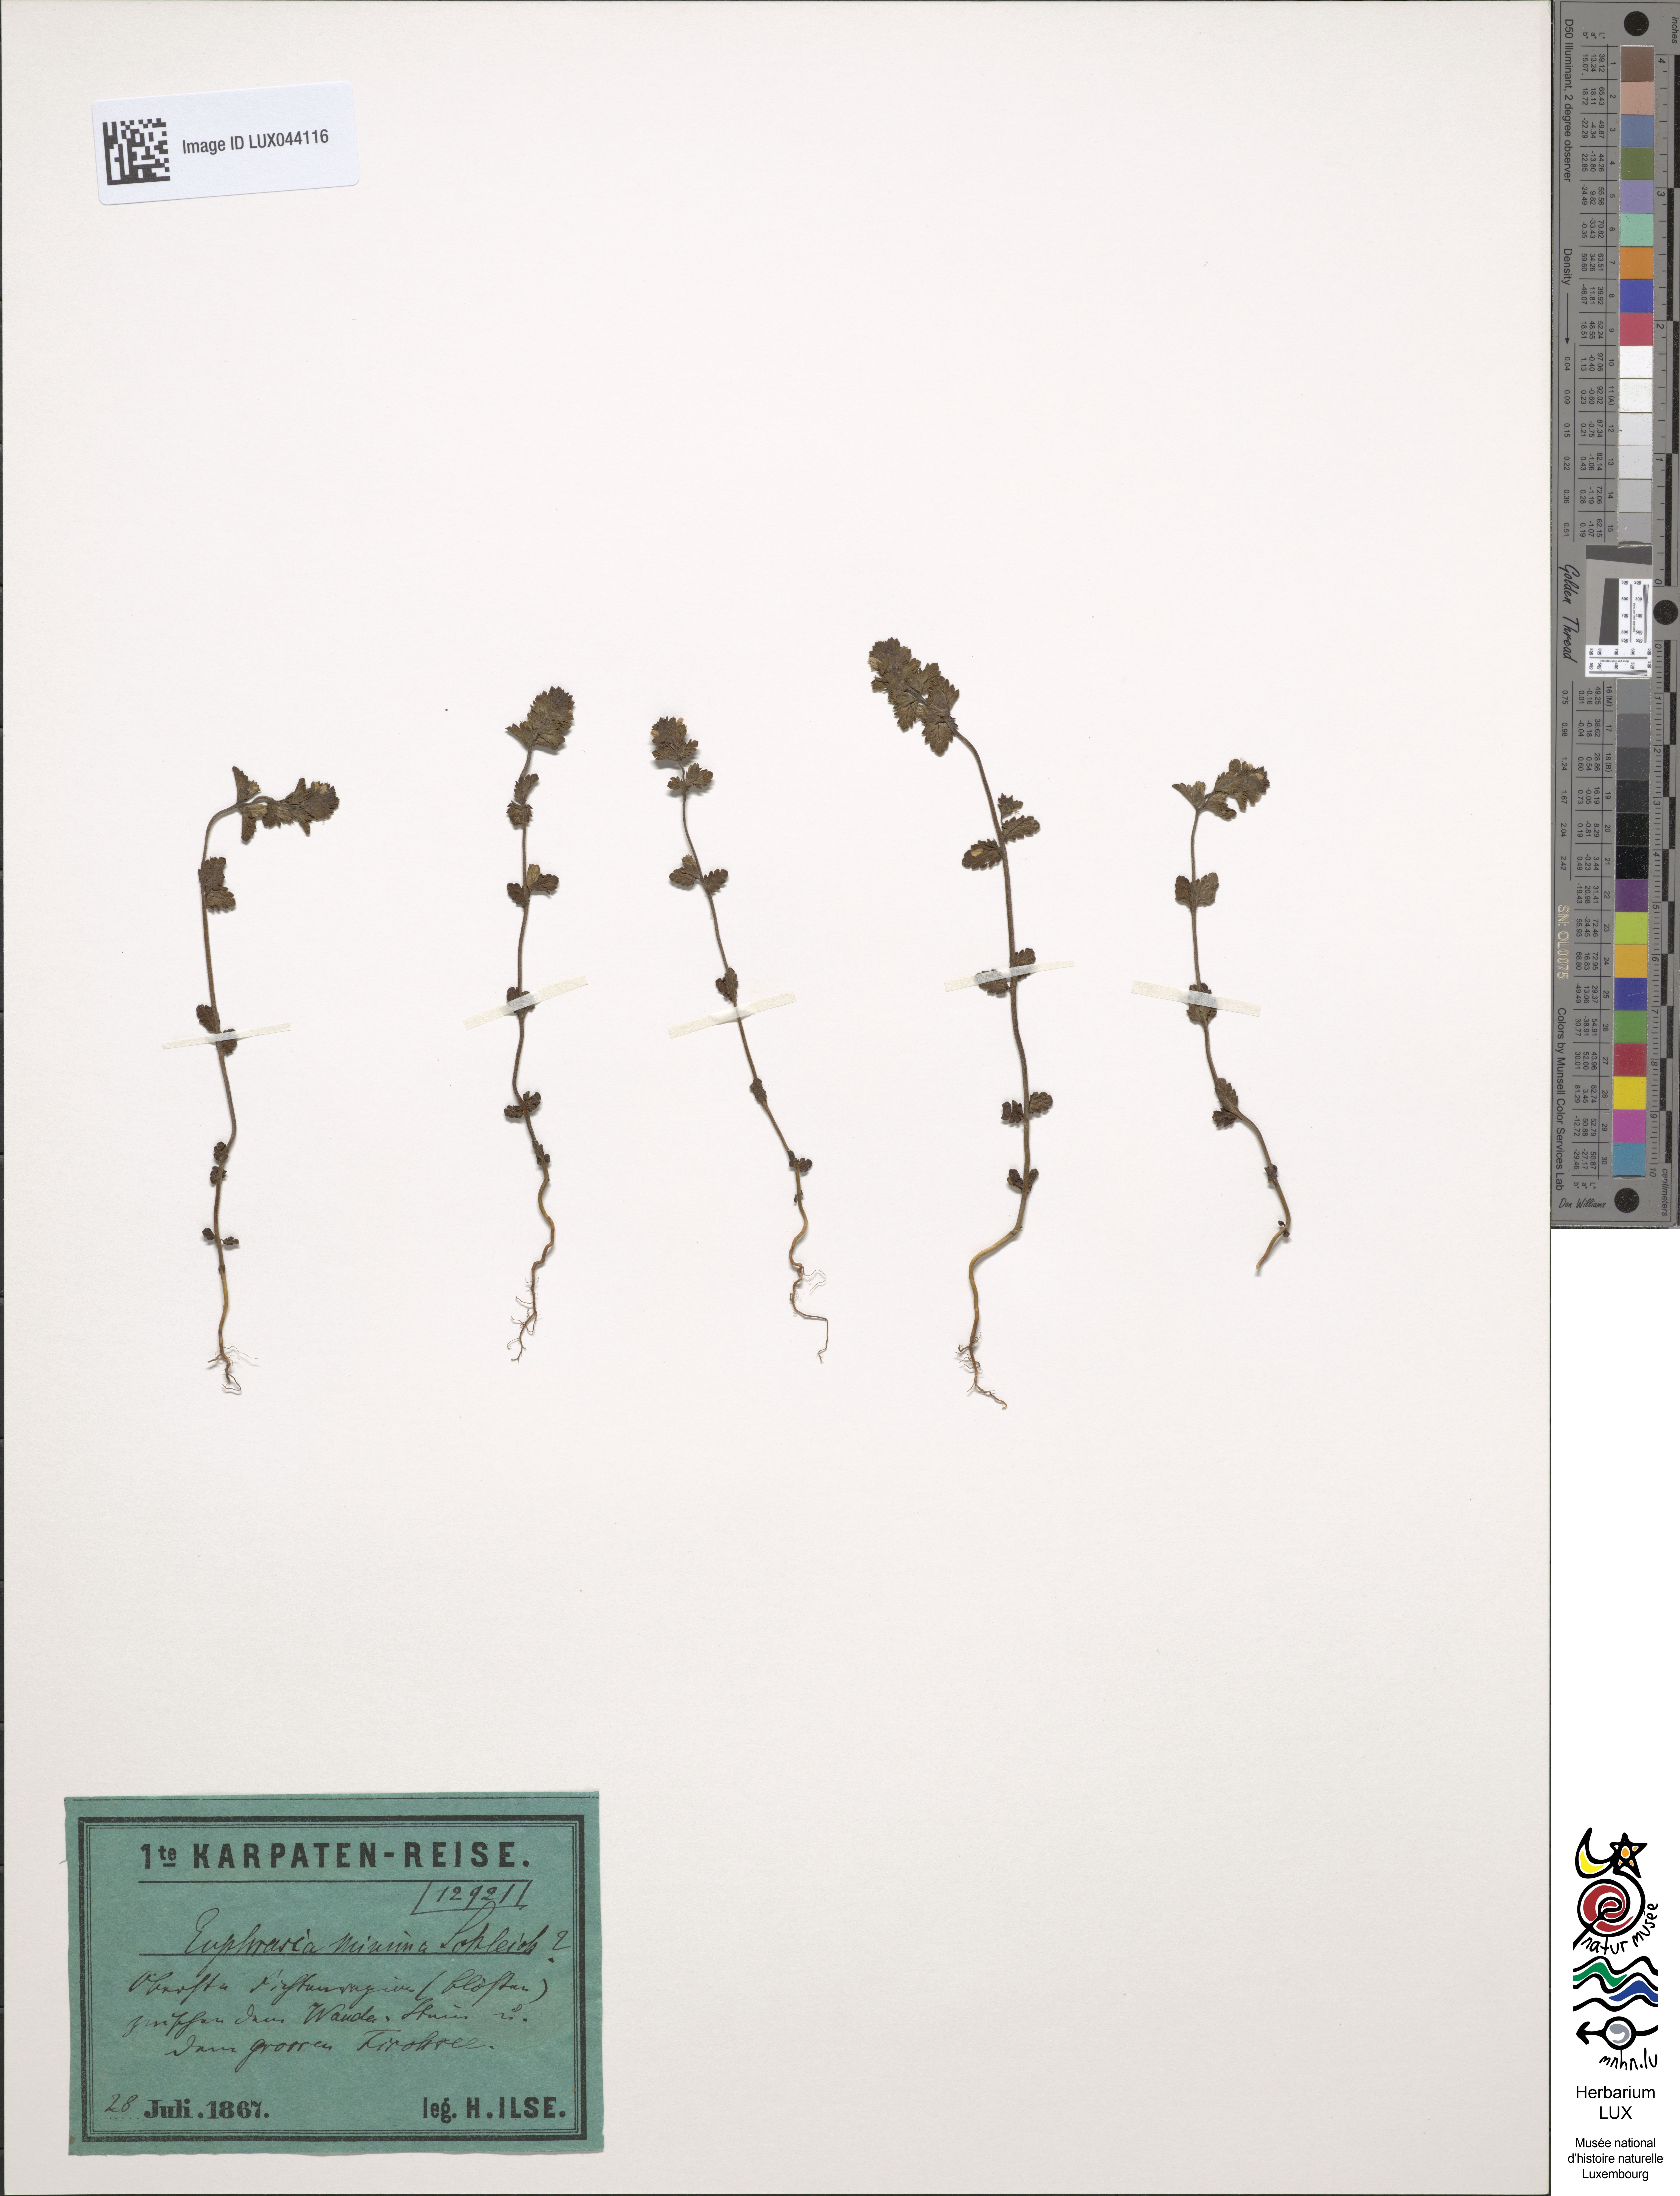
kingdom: Plantae
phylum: Tracheophyta
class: Magnoliopsida
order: Lamiales
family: Orobanchaceae
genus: Euphrasia
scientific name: Euphrasia minima
